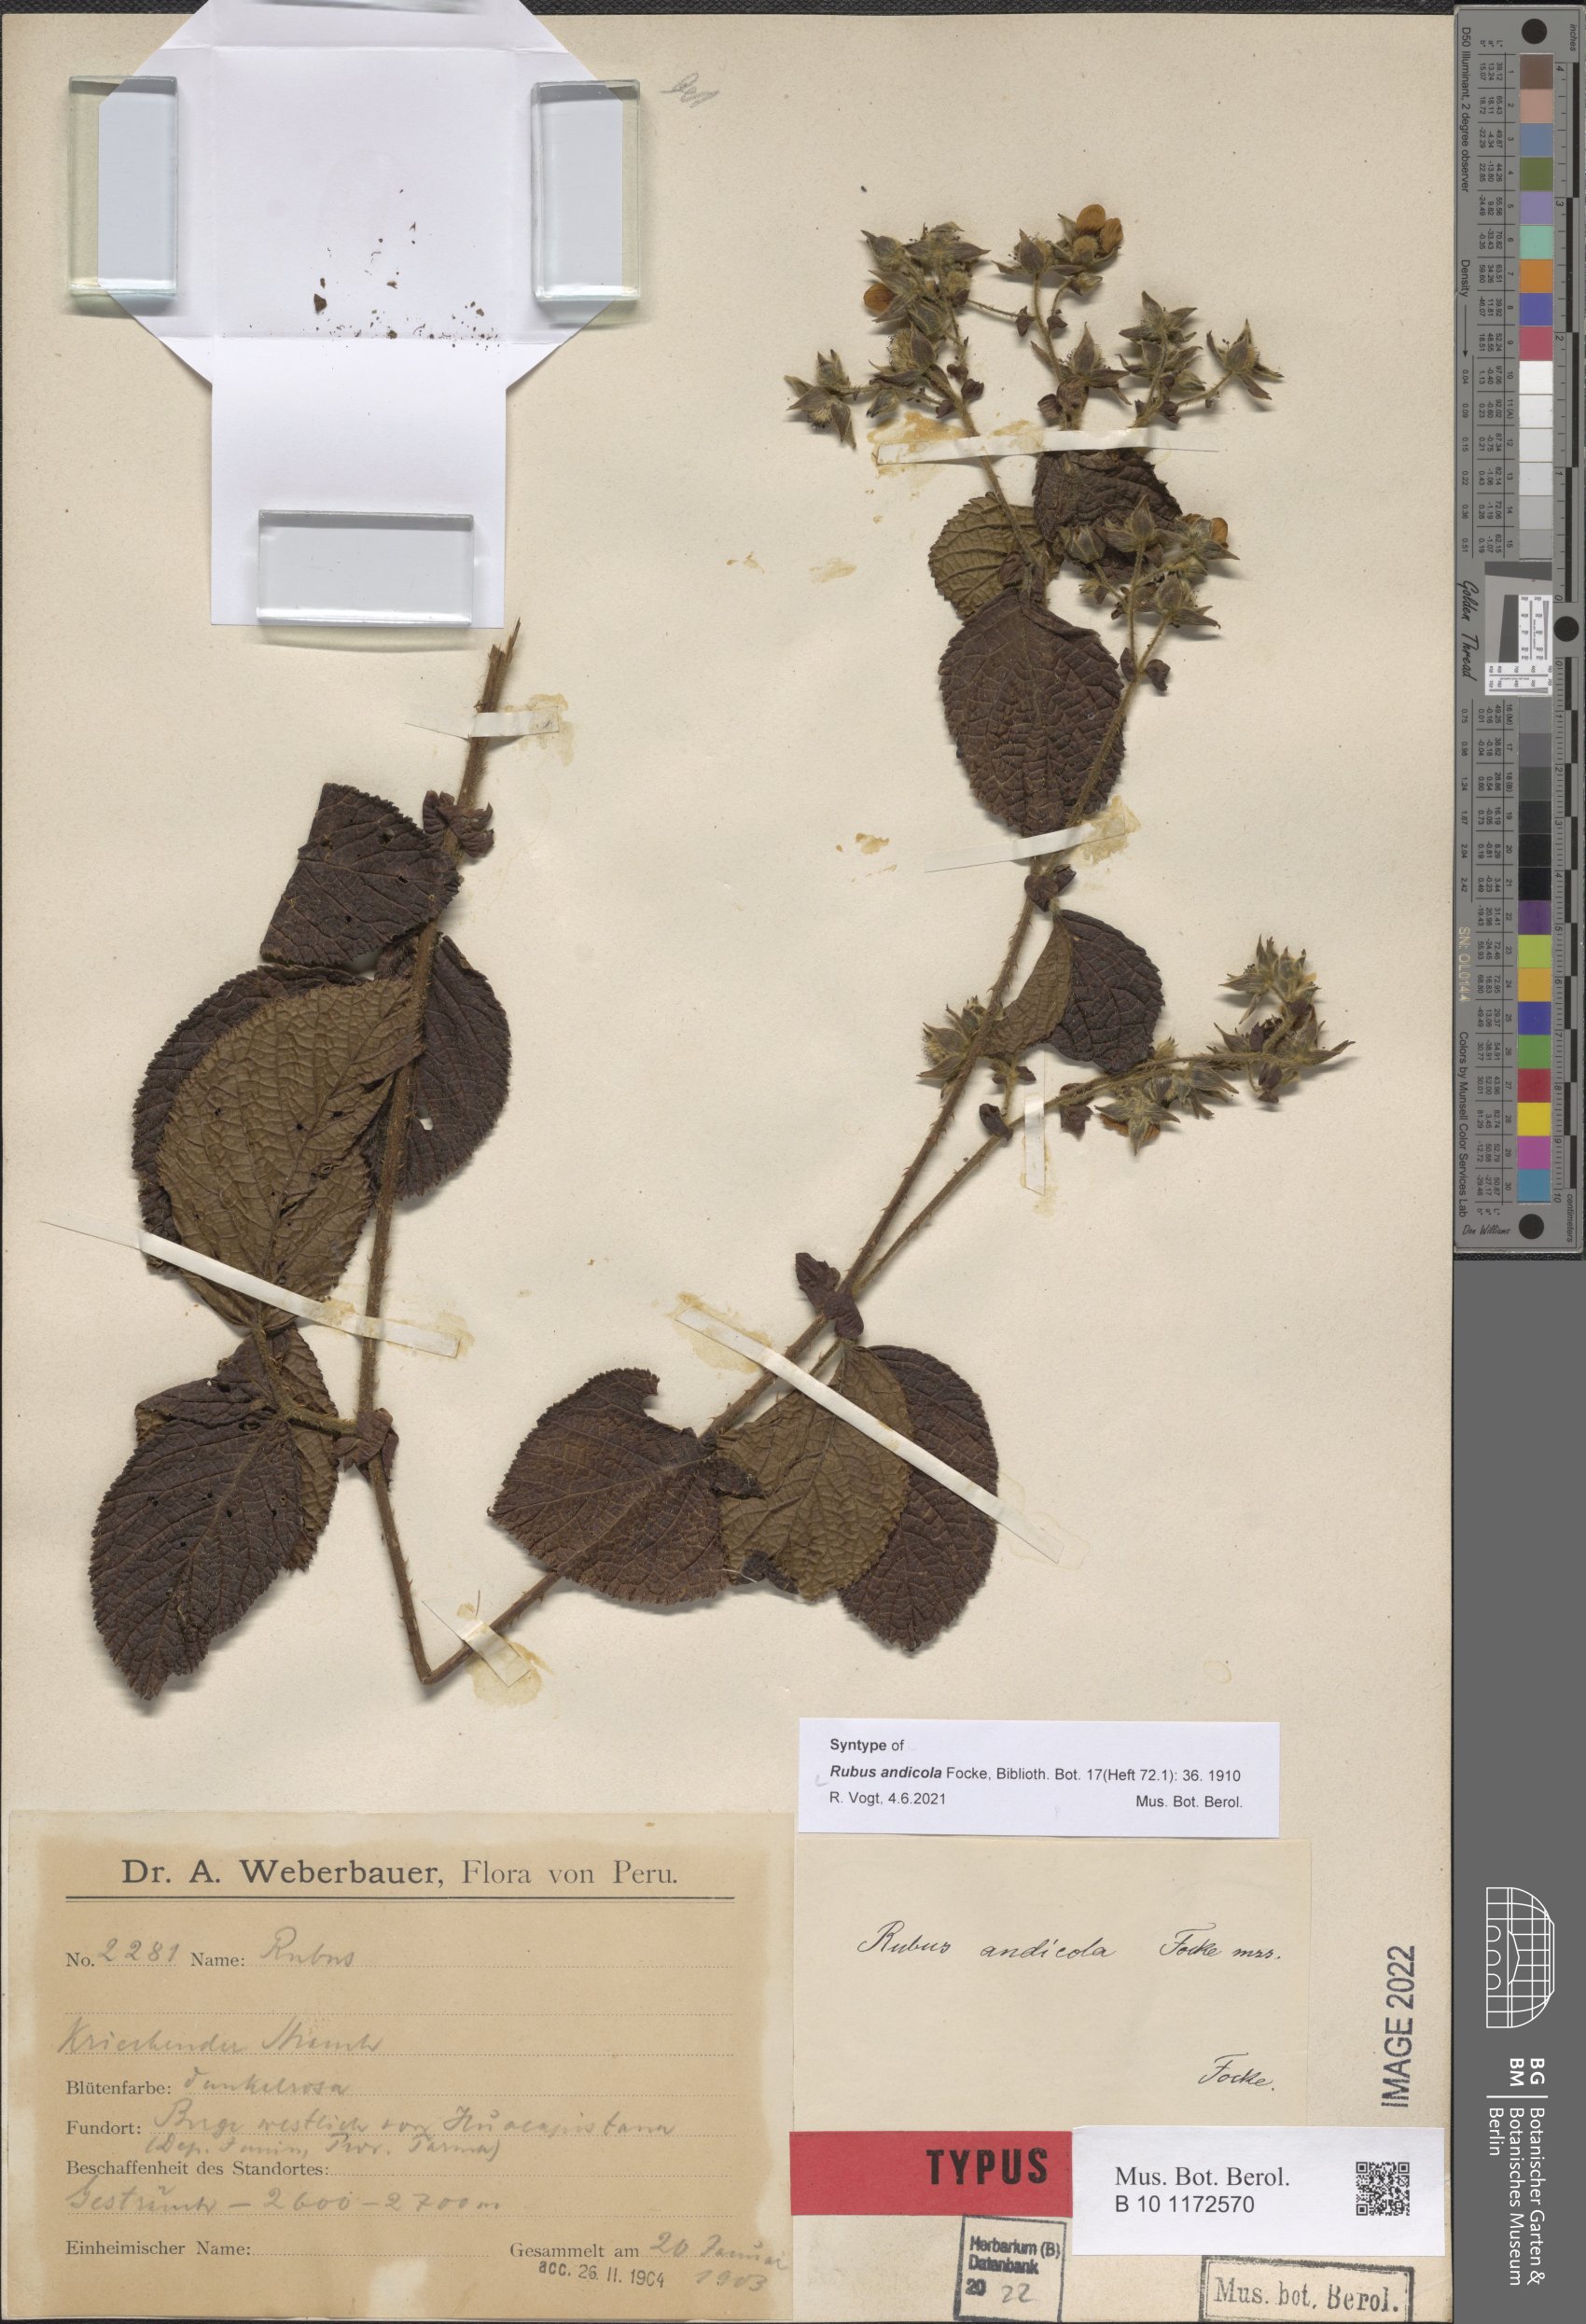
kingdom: Plantae
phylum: Tracheophyta
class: Magnoliopsida
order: Rosales
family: Rosaceae
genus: Rubus
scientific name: Rubus andicola
